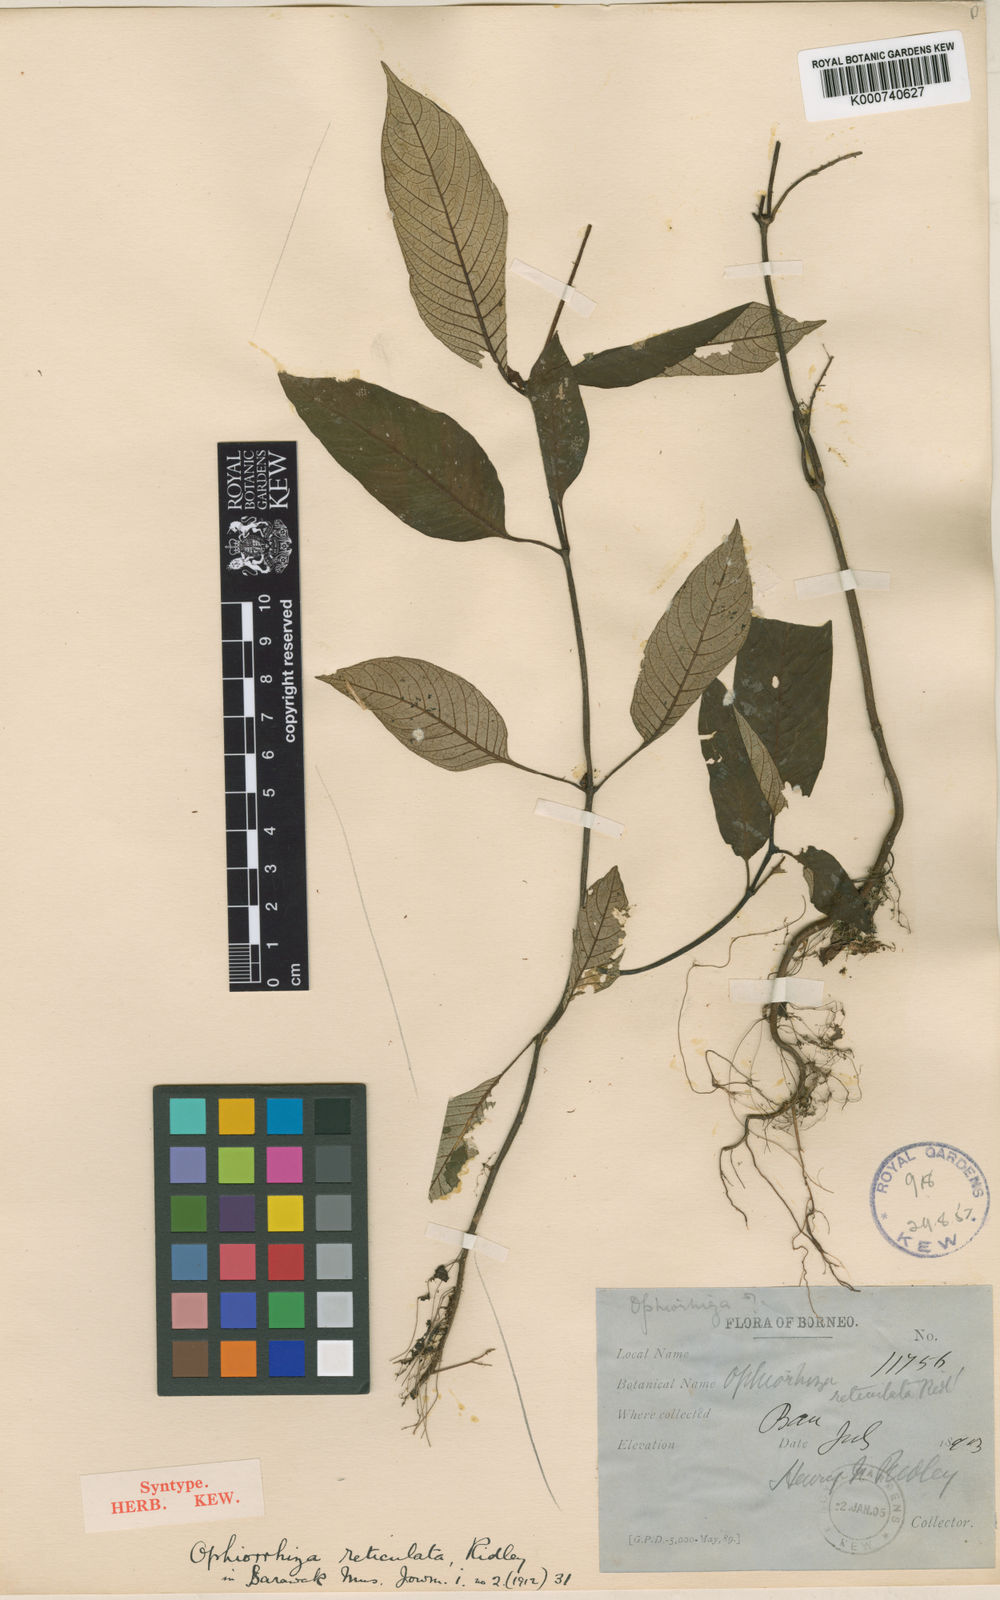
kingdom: Plantae
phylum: Tracheophyta
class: Magnoliopsida
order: Gentianales
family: Rubiaceae
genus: Ophiorrhiza
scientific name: Ophiorrhiza sarawakensis
